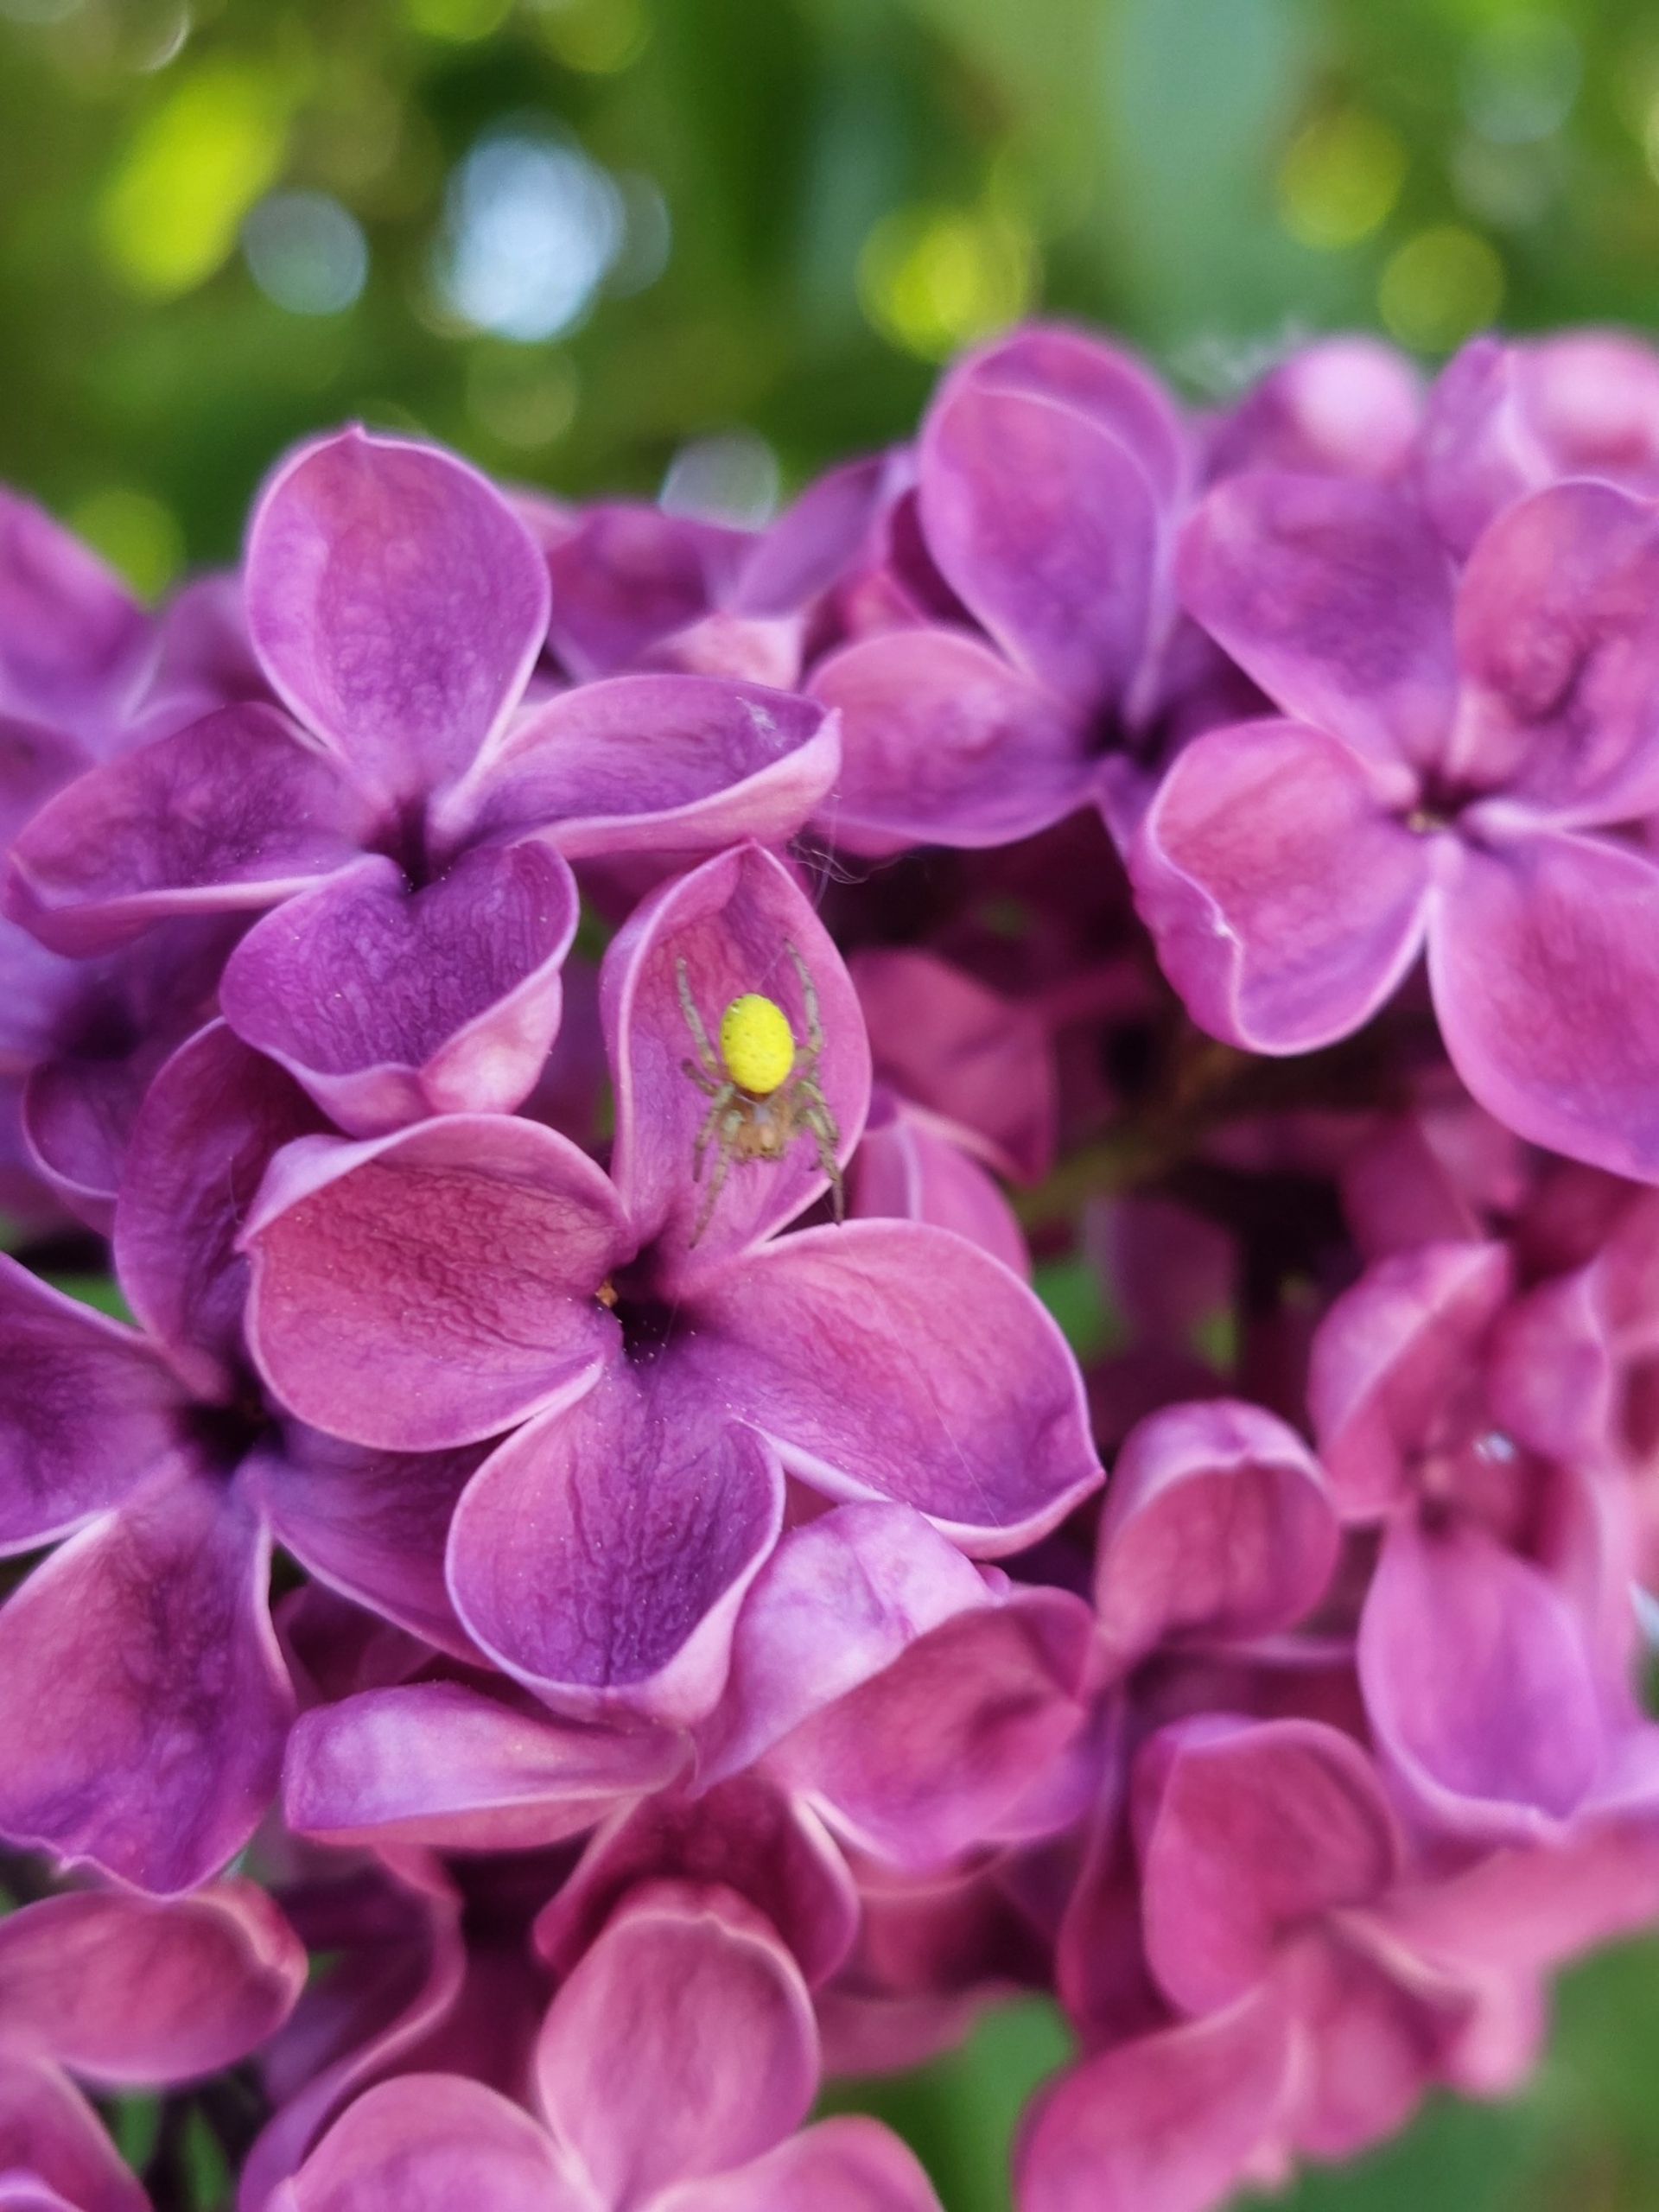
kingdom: Animalia
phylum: Arthropoda
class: Arachnida
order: Araneae
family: Araneidae
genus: Araniella
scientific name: Araniella
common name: Agurkeedderkopslægten
